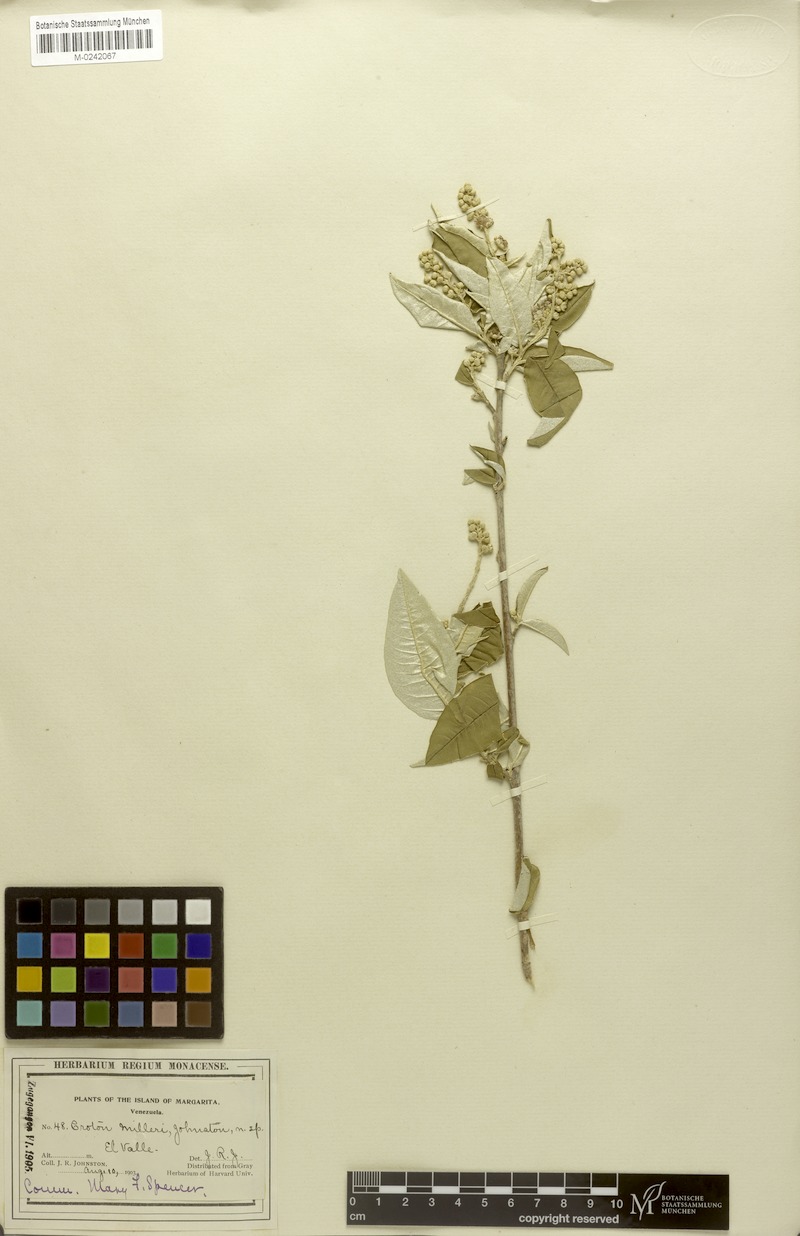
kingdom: Plantae
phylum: Tracheophyta
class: Magnoliopsida
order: Malpighiales
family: Euphorbiaceae
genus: Croton
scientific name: Croton argyrophyllus
